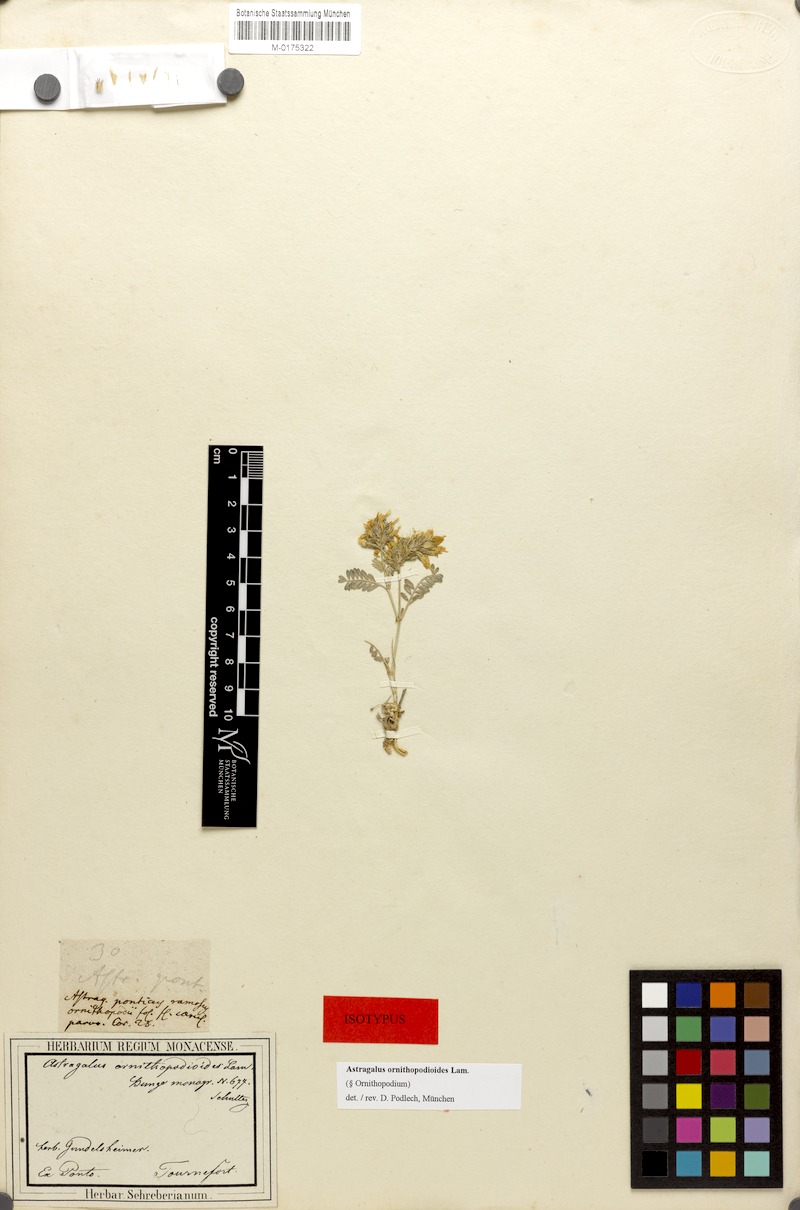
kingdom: Plantae
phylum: Tracheophyta
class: Magnoliopsida
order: Fabales
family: Fabaceae
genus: Astragalus
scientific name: Astragalus ornithopodioides
